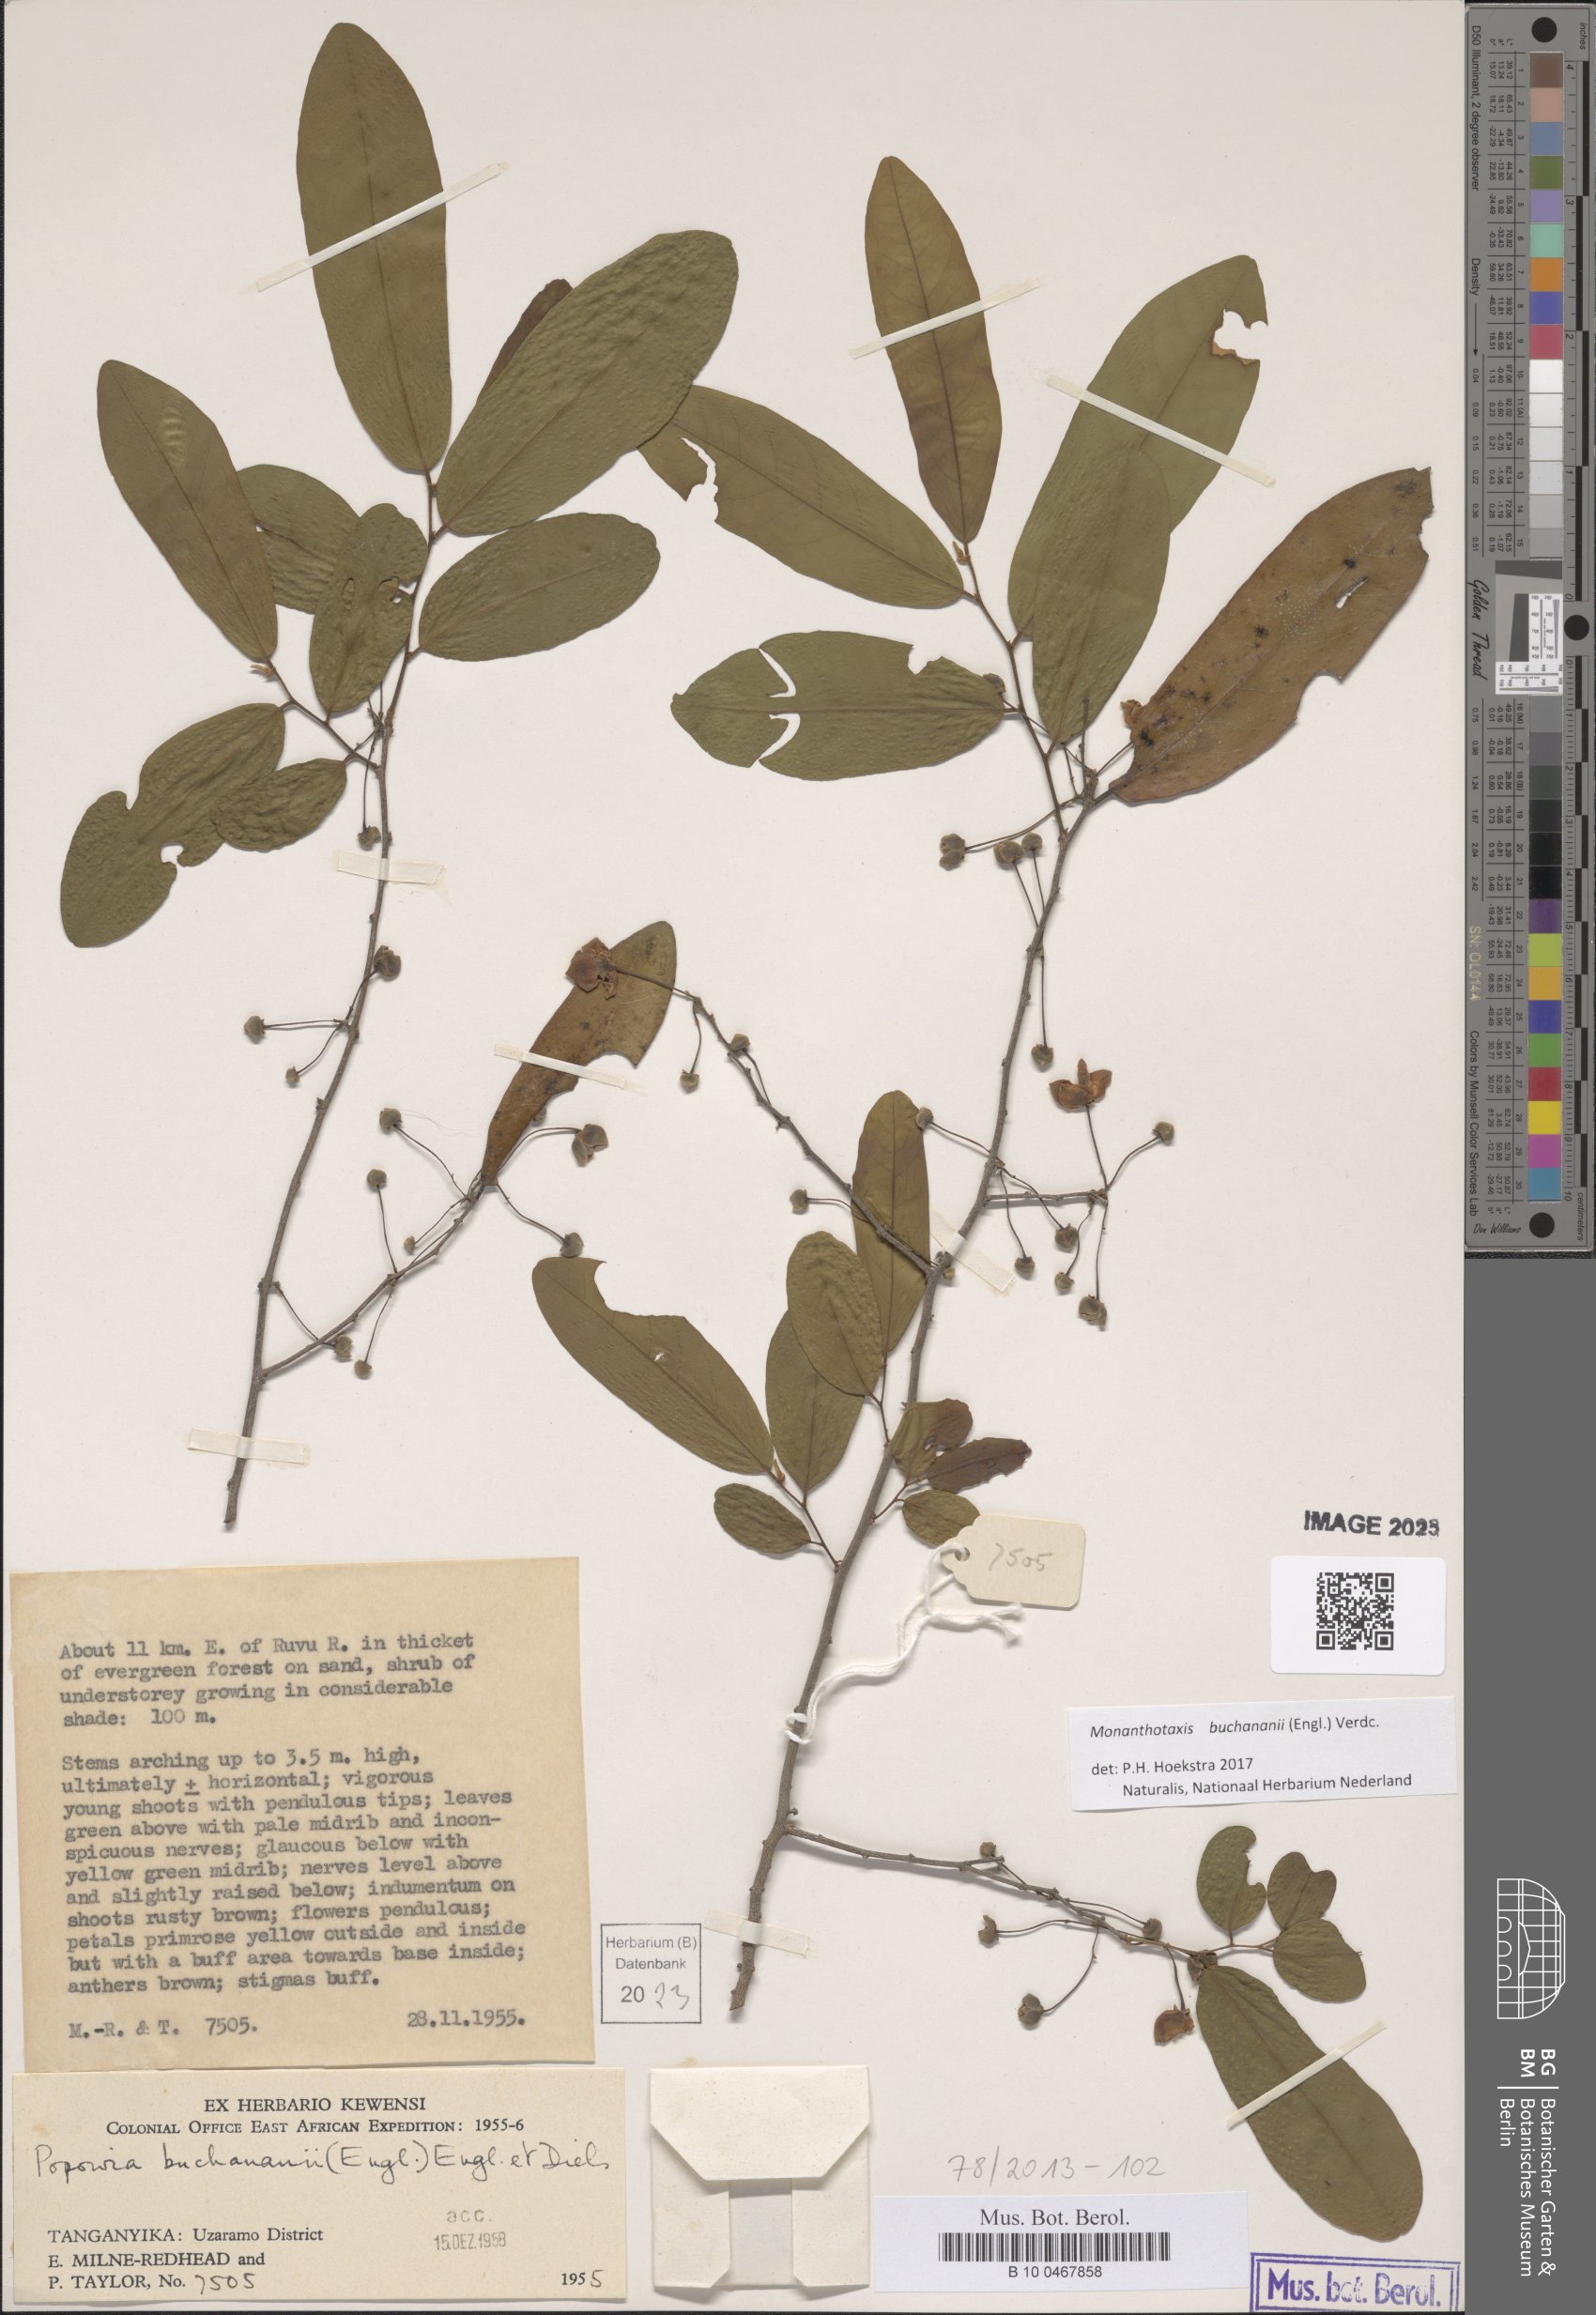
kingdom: Plantae
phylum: Tracheophyta
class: Magnoliopsida
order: Magnoliales
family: Annonaceae
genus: Monanthotaxis
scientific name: Monanthotaxis buchananii
